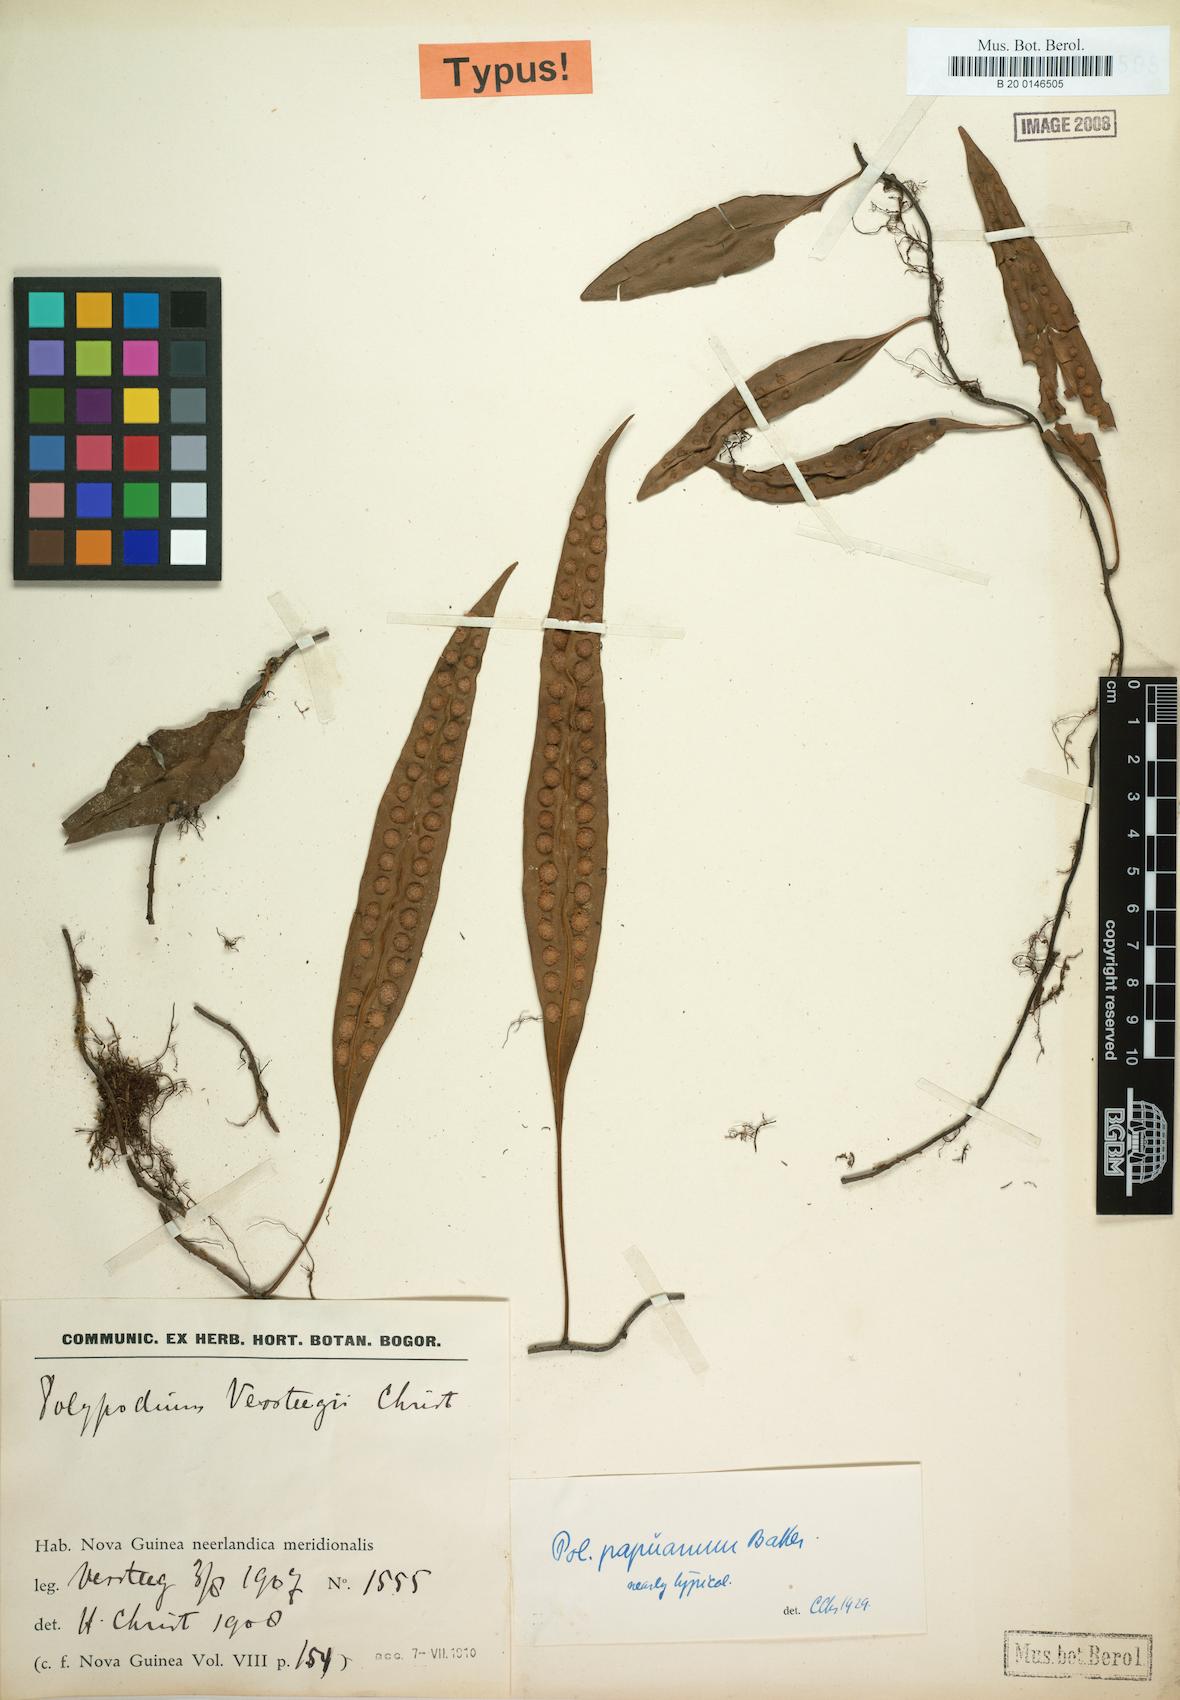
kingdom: Plantae
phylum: Tracheophyta
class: Polypodiopsida
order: Polypodiales
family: Polypodiaceae
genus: Microsorum
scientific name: Microsorum papuanum
